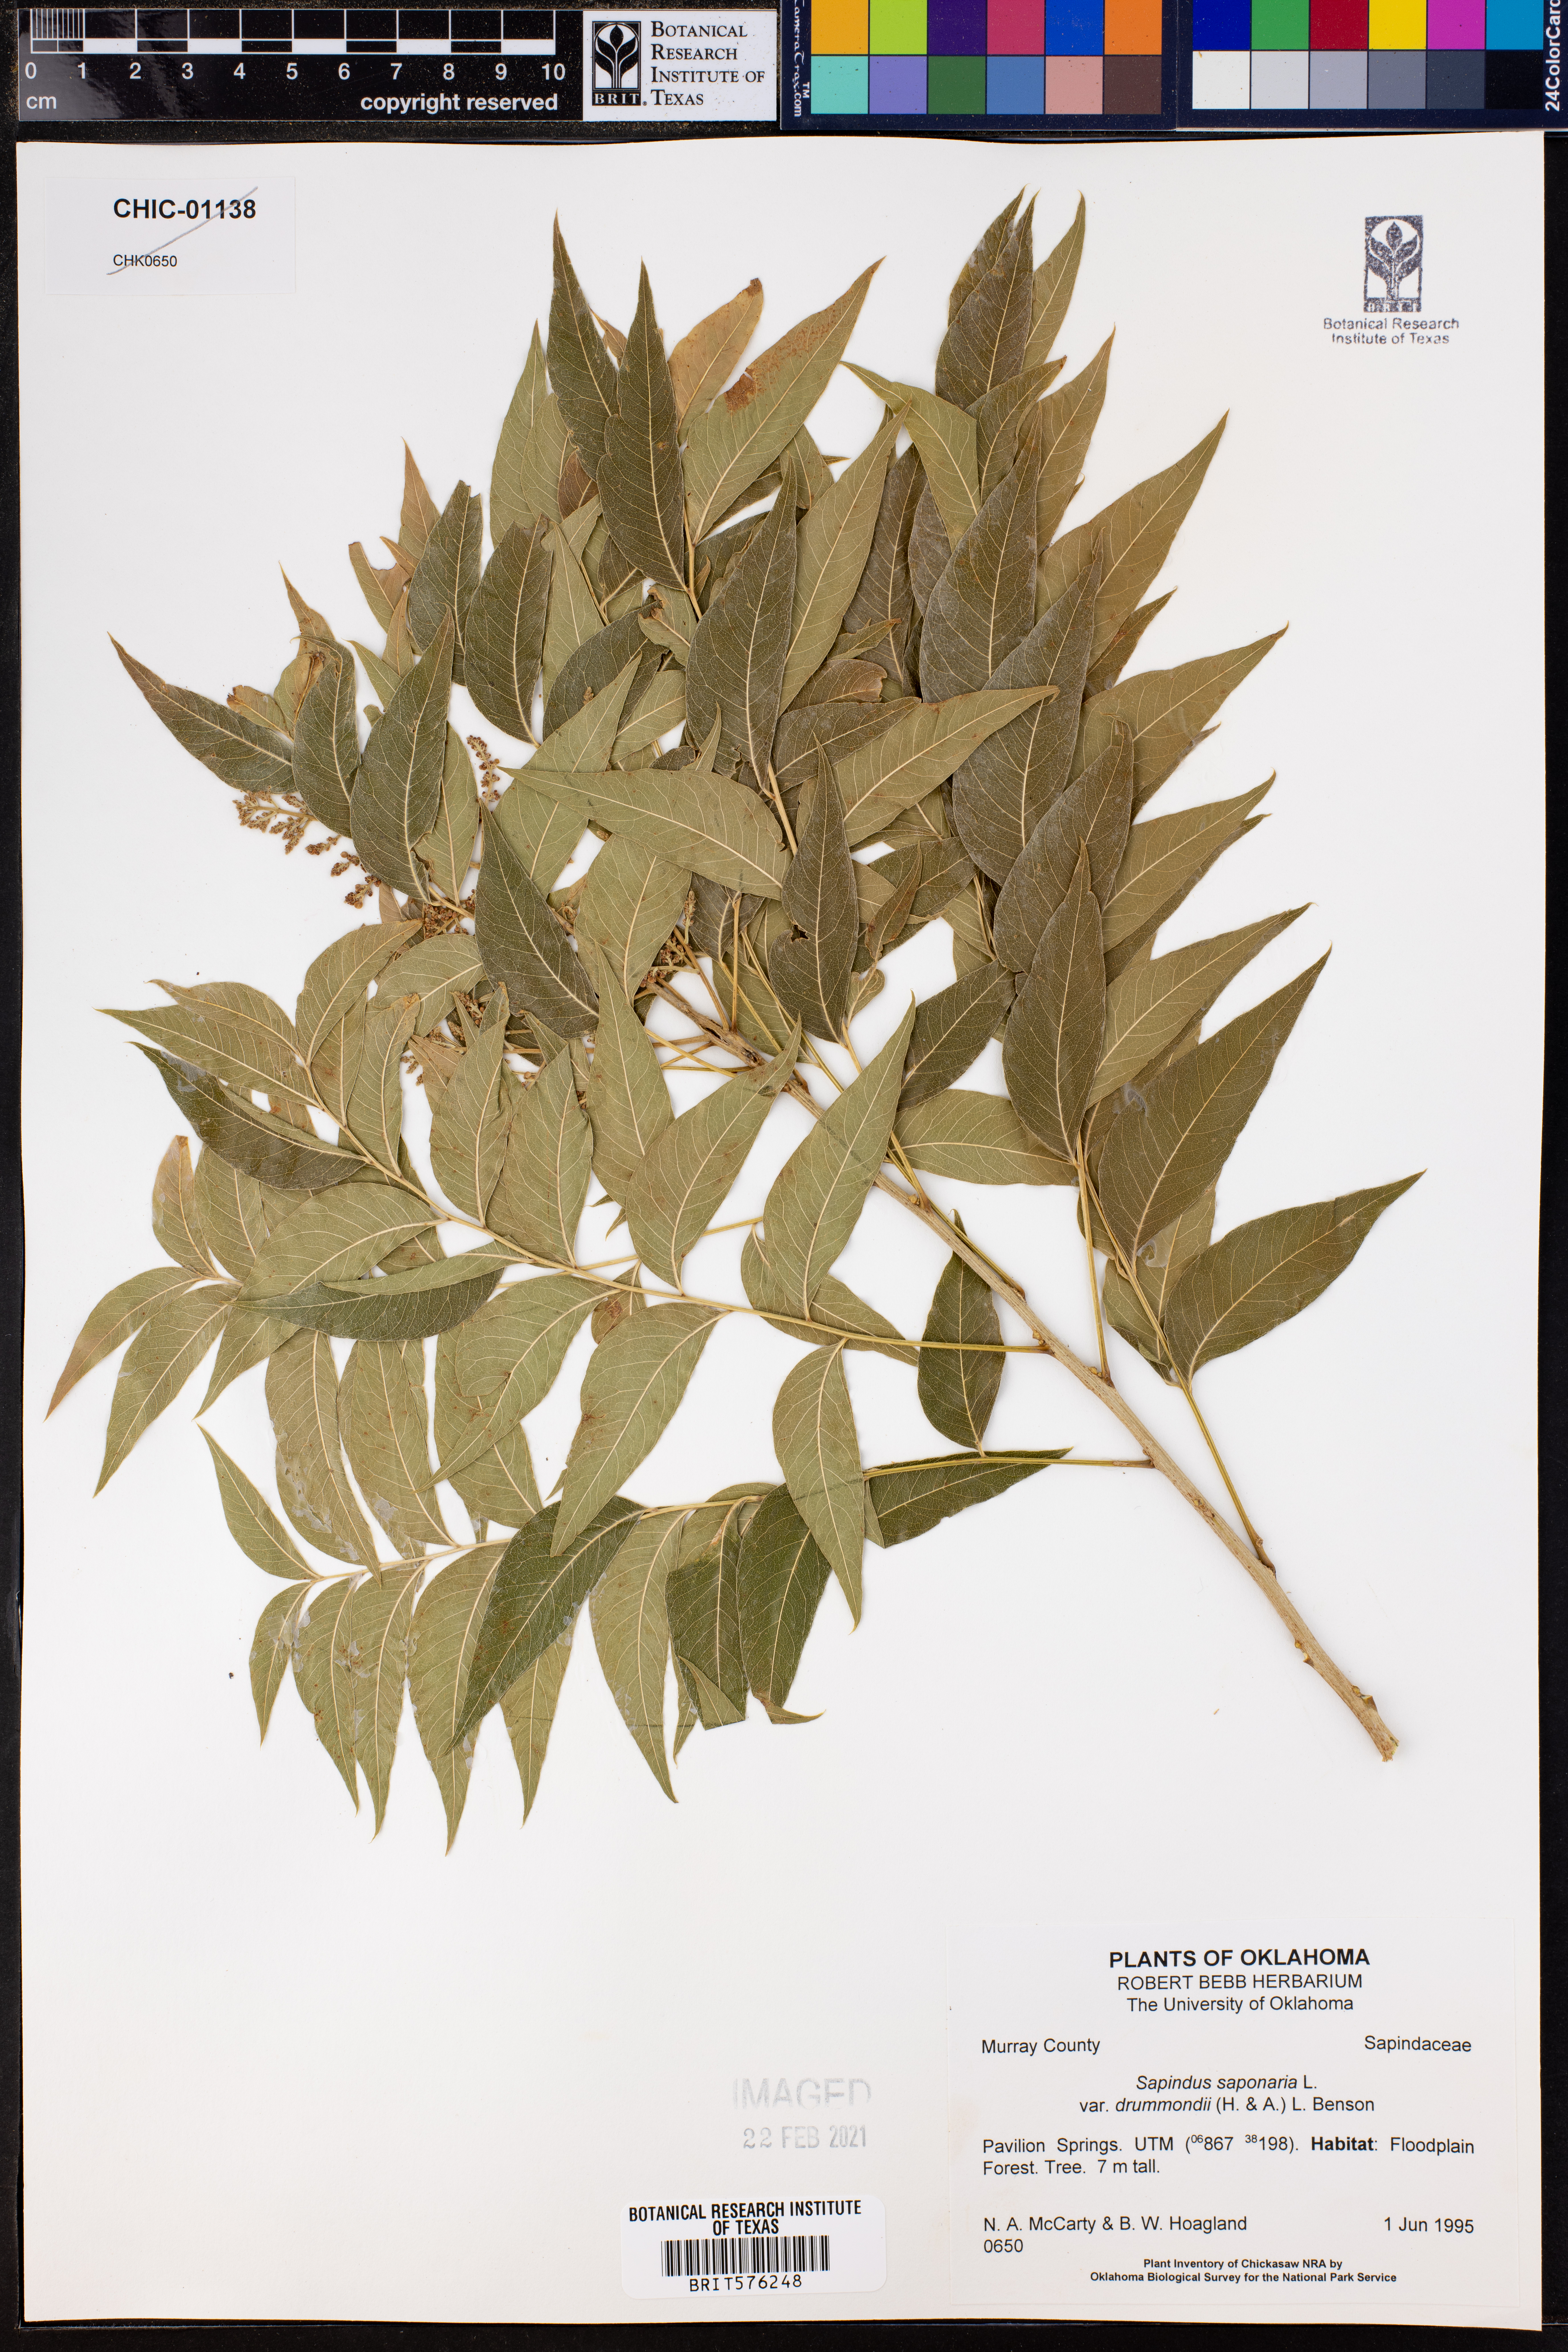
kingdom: Plantae
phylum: Tracheophyta
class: Magnoliopsida
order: Sapindales
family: Sapindaceae
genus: Sapindus
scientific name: Sapindus drummondii
